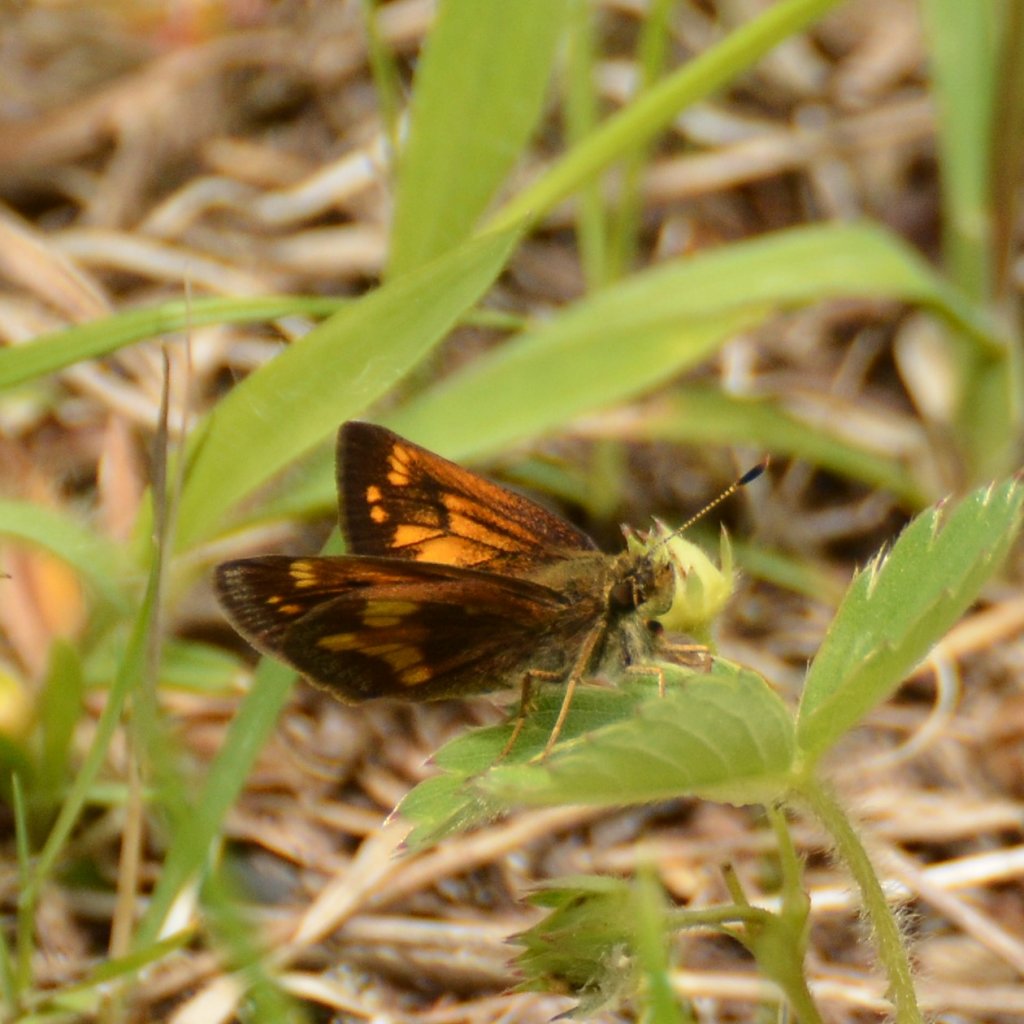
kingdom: Animalia
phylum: Arthropoda
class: Insecta
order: Lepidoptera
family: Hesperiidae
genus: Lon
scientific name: Lon hobomok
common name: Hobomok Skipper
